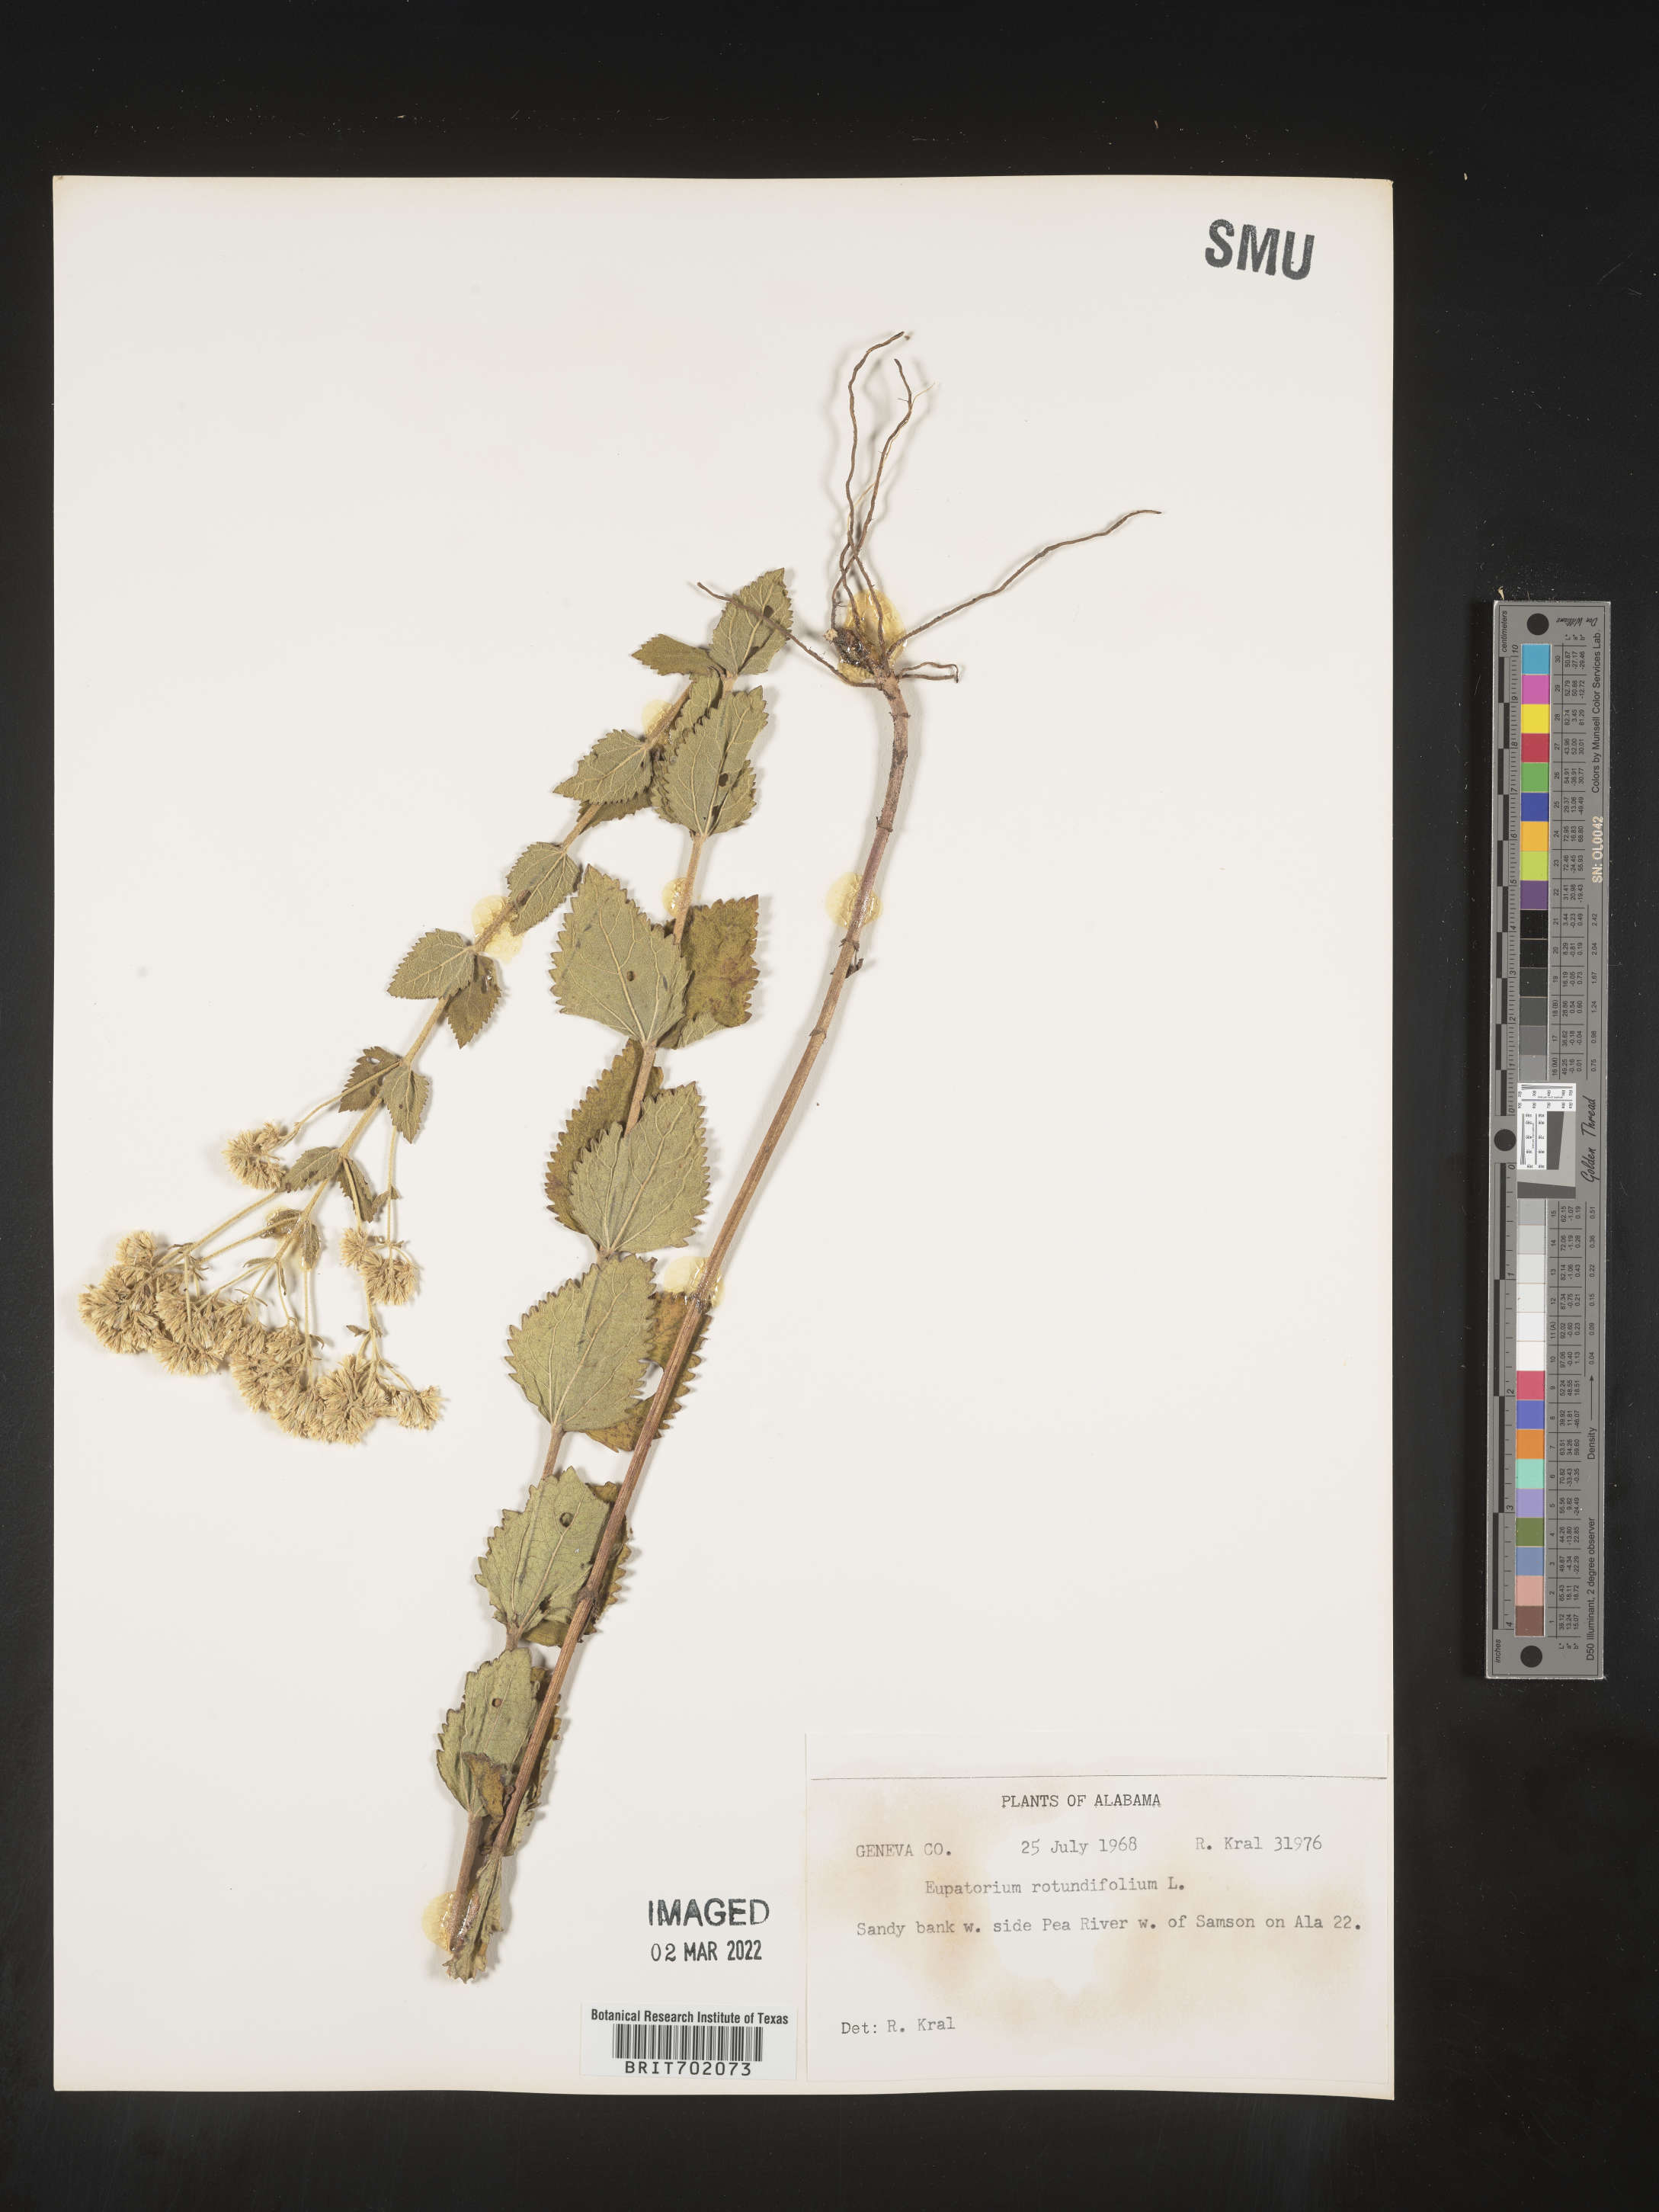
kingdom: Plantae
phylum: Tracheophyta
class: Magnoliopsida
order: Asterales
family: Asteraceae
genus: Eupatorium
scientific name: Eupatorium rotundifolium
